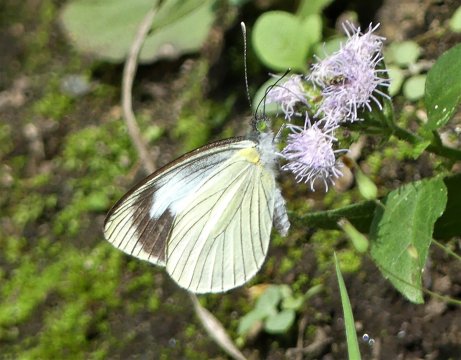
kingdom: Animalia
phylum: Arthropoda
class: Insecta
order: Lepidoptera
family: Pieridae
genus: Leptophobia
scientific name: Leptophobia olympia
